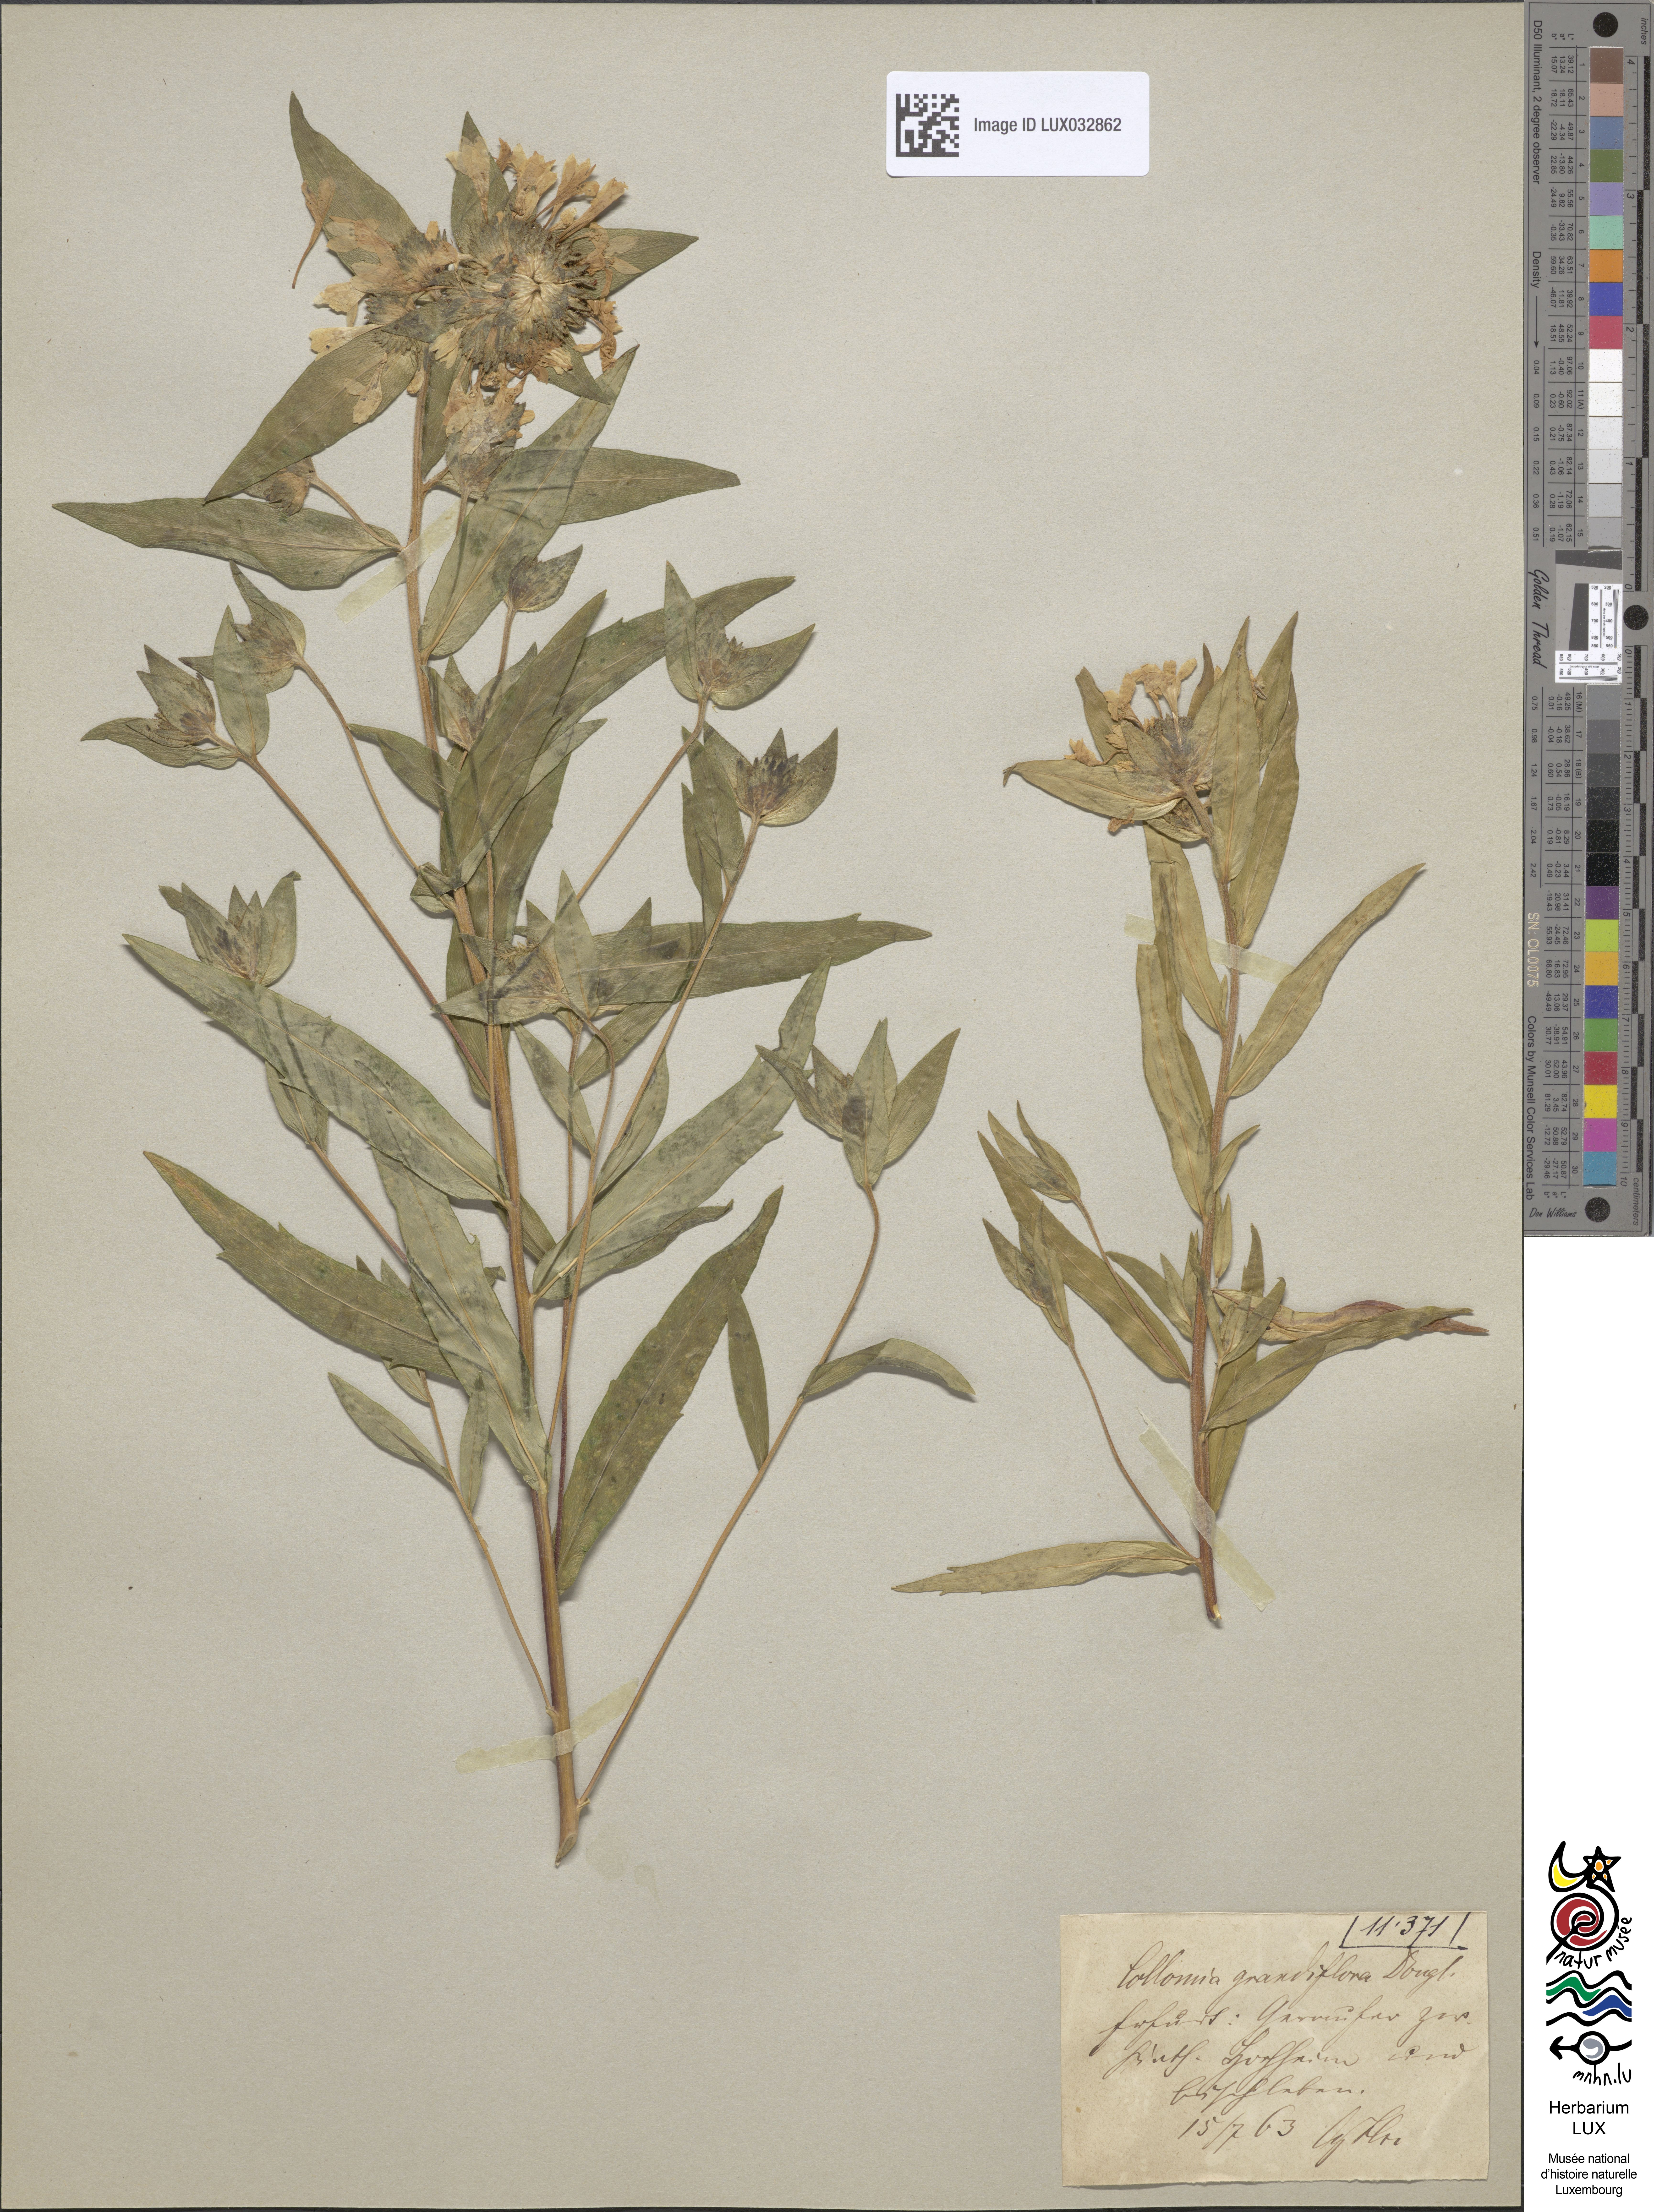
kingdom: Plantae
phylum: Tracheophyta
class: Magnoliopsida
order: Ericales
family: Polemoniaceae
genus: Collomia
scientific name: Collomia grandiflora
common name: California strawflower
